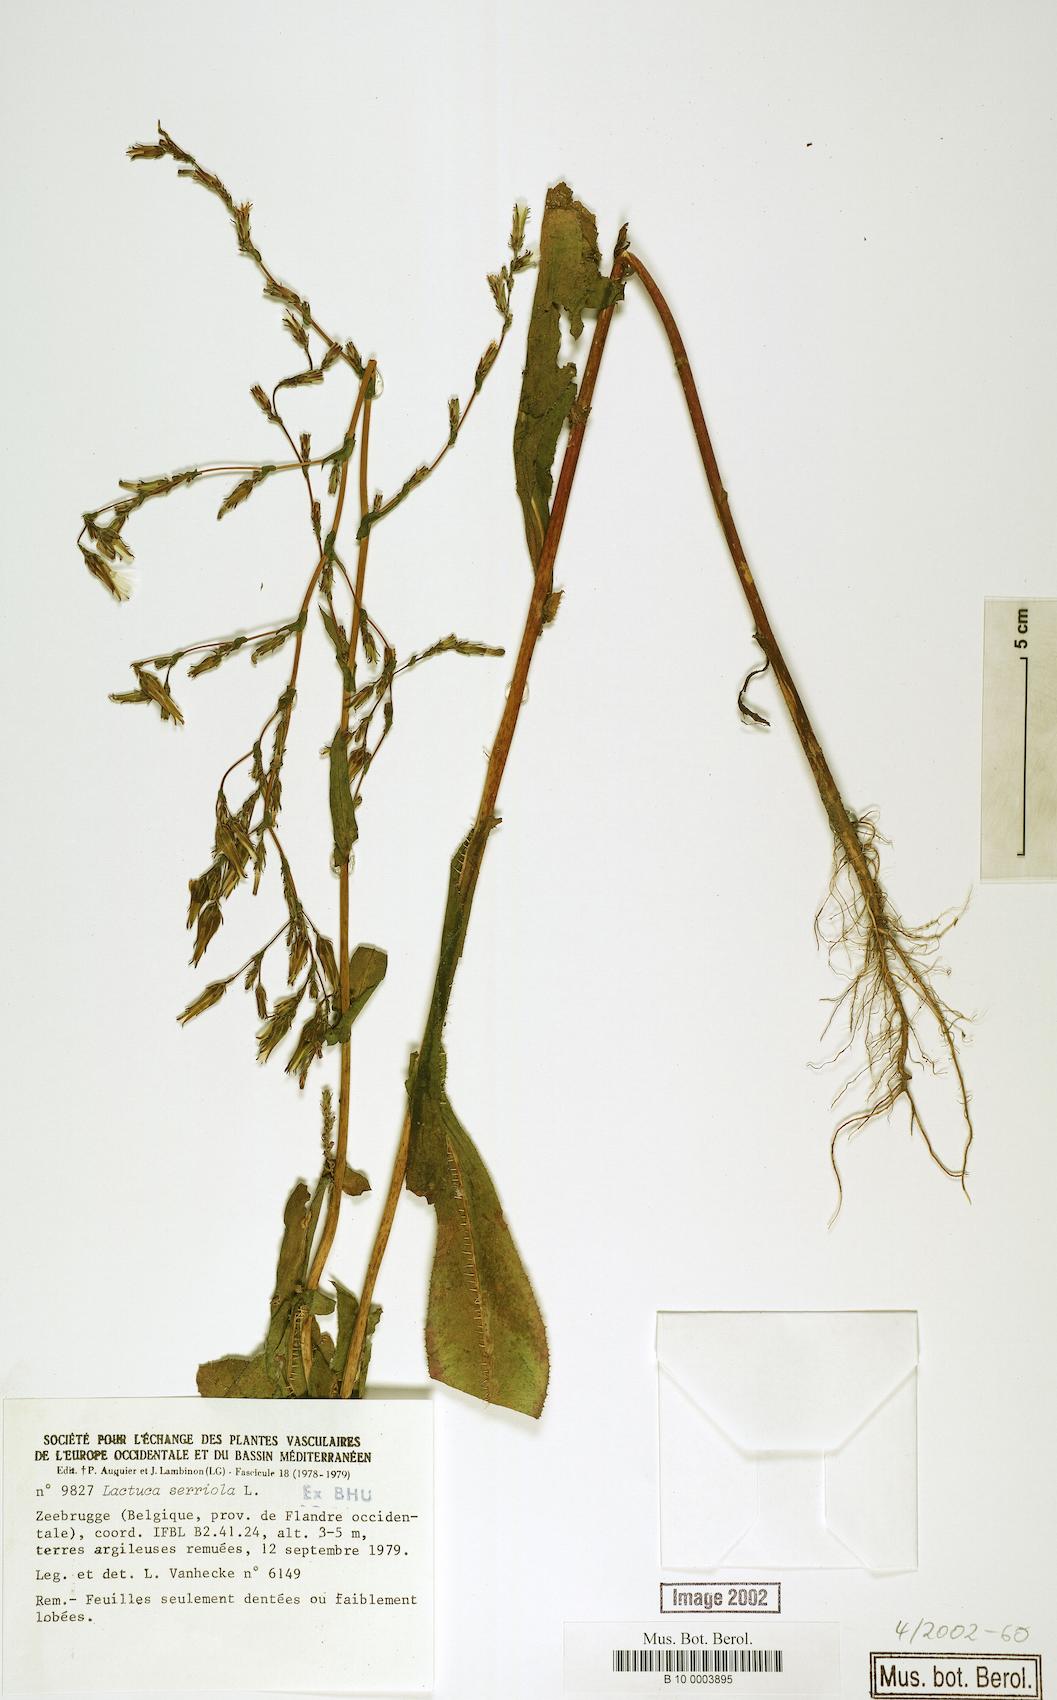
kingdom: Plantae
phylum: Tracheophyta
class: Magnoliopsida
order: Asterales
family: Asteraceae
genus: Lactuca
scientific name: Lactuca serriola
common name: Prickly lettuce
